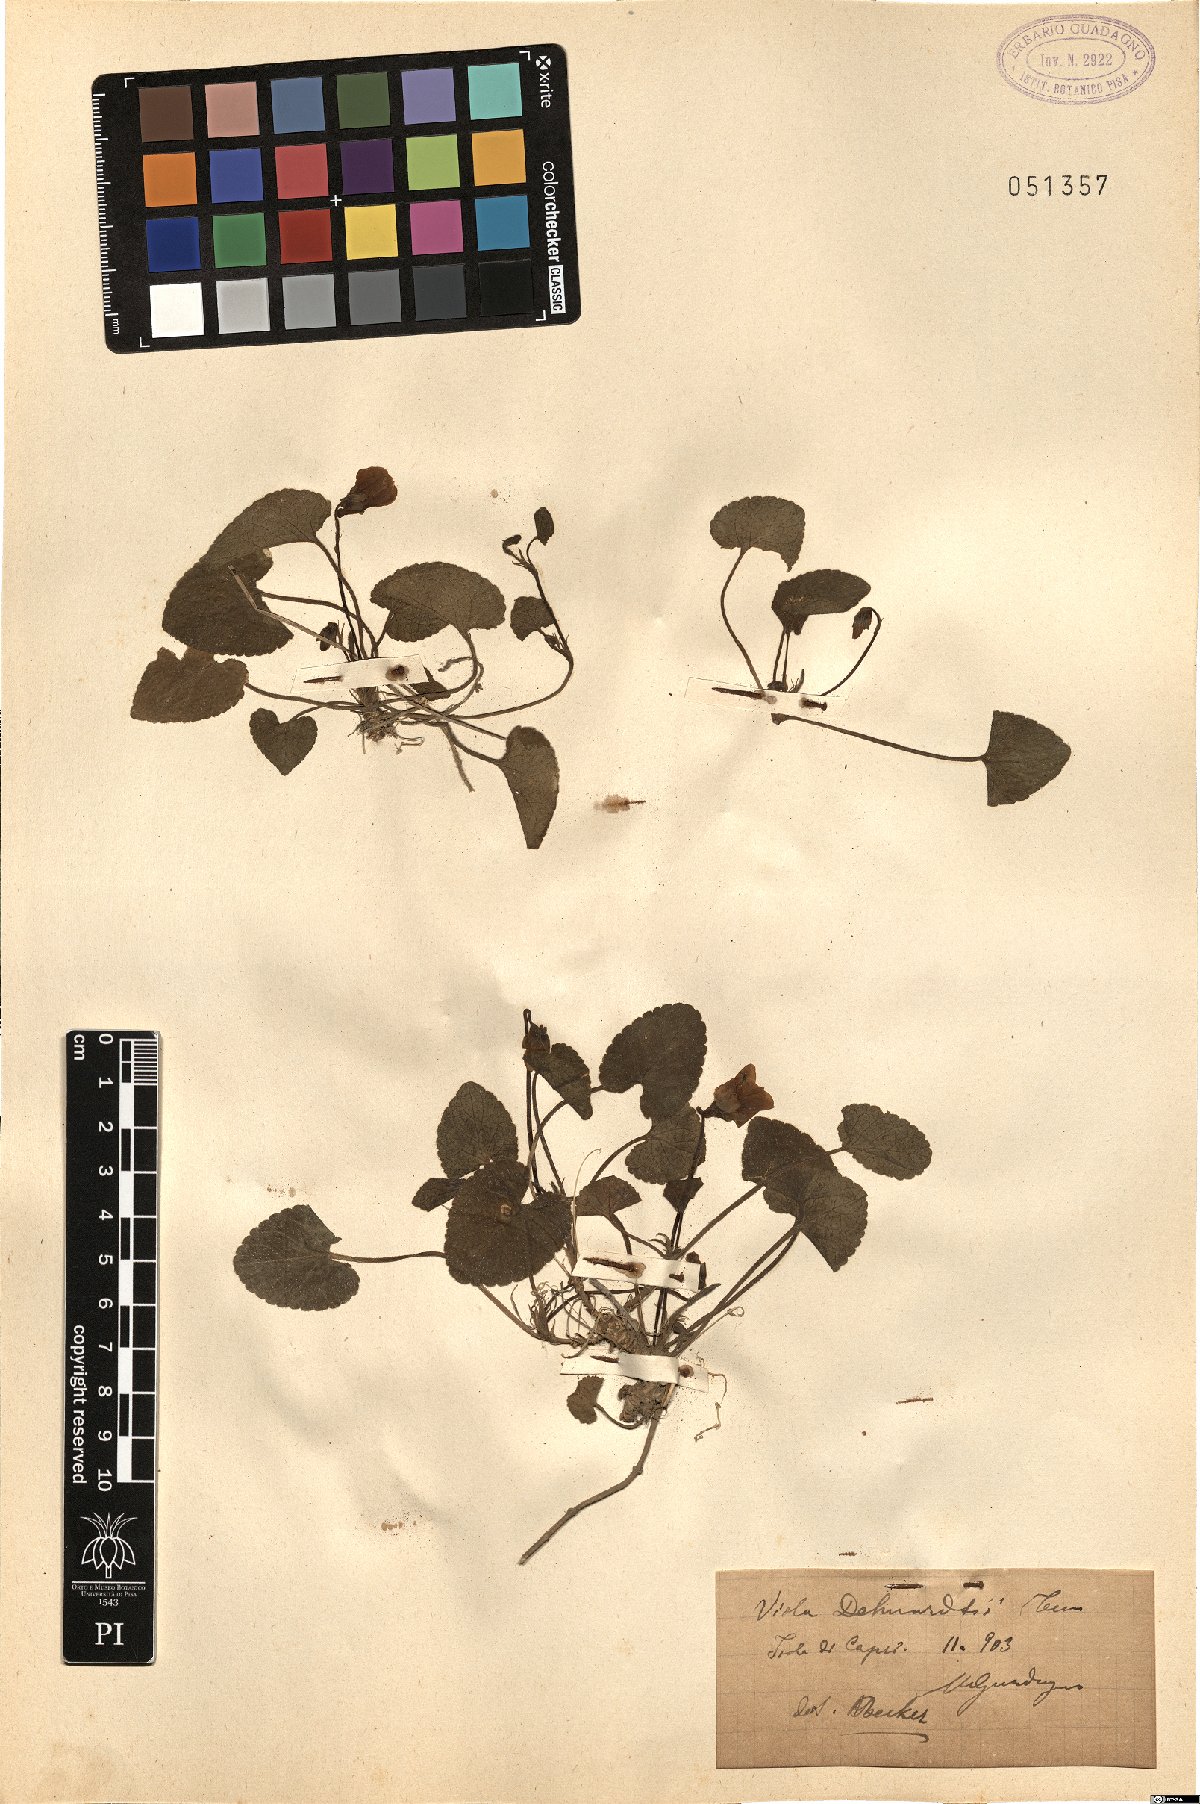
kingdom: Plantae
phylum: Tracheophyta
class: Magnoliopsida
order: Malpighiales
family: Violaceae
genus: Viola
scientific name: Viola alba
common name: White violet
